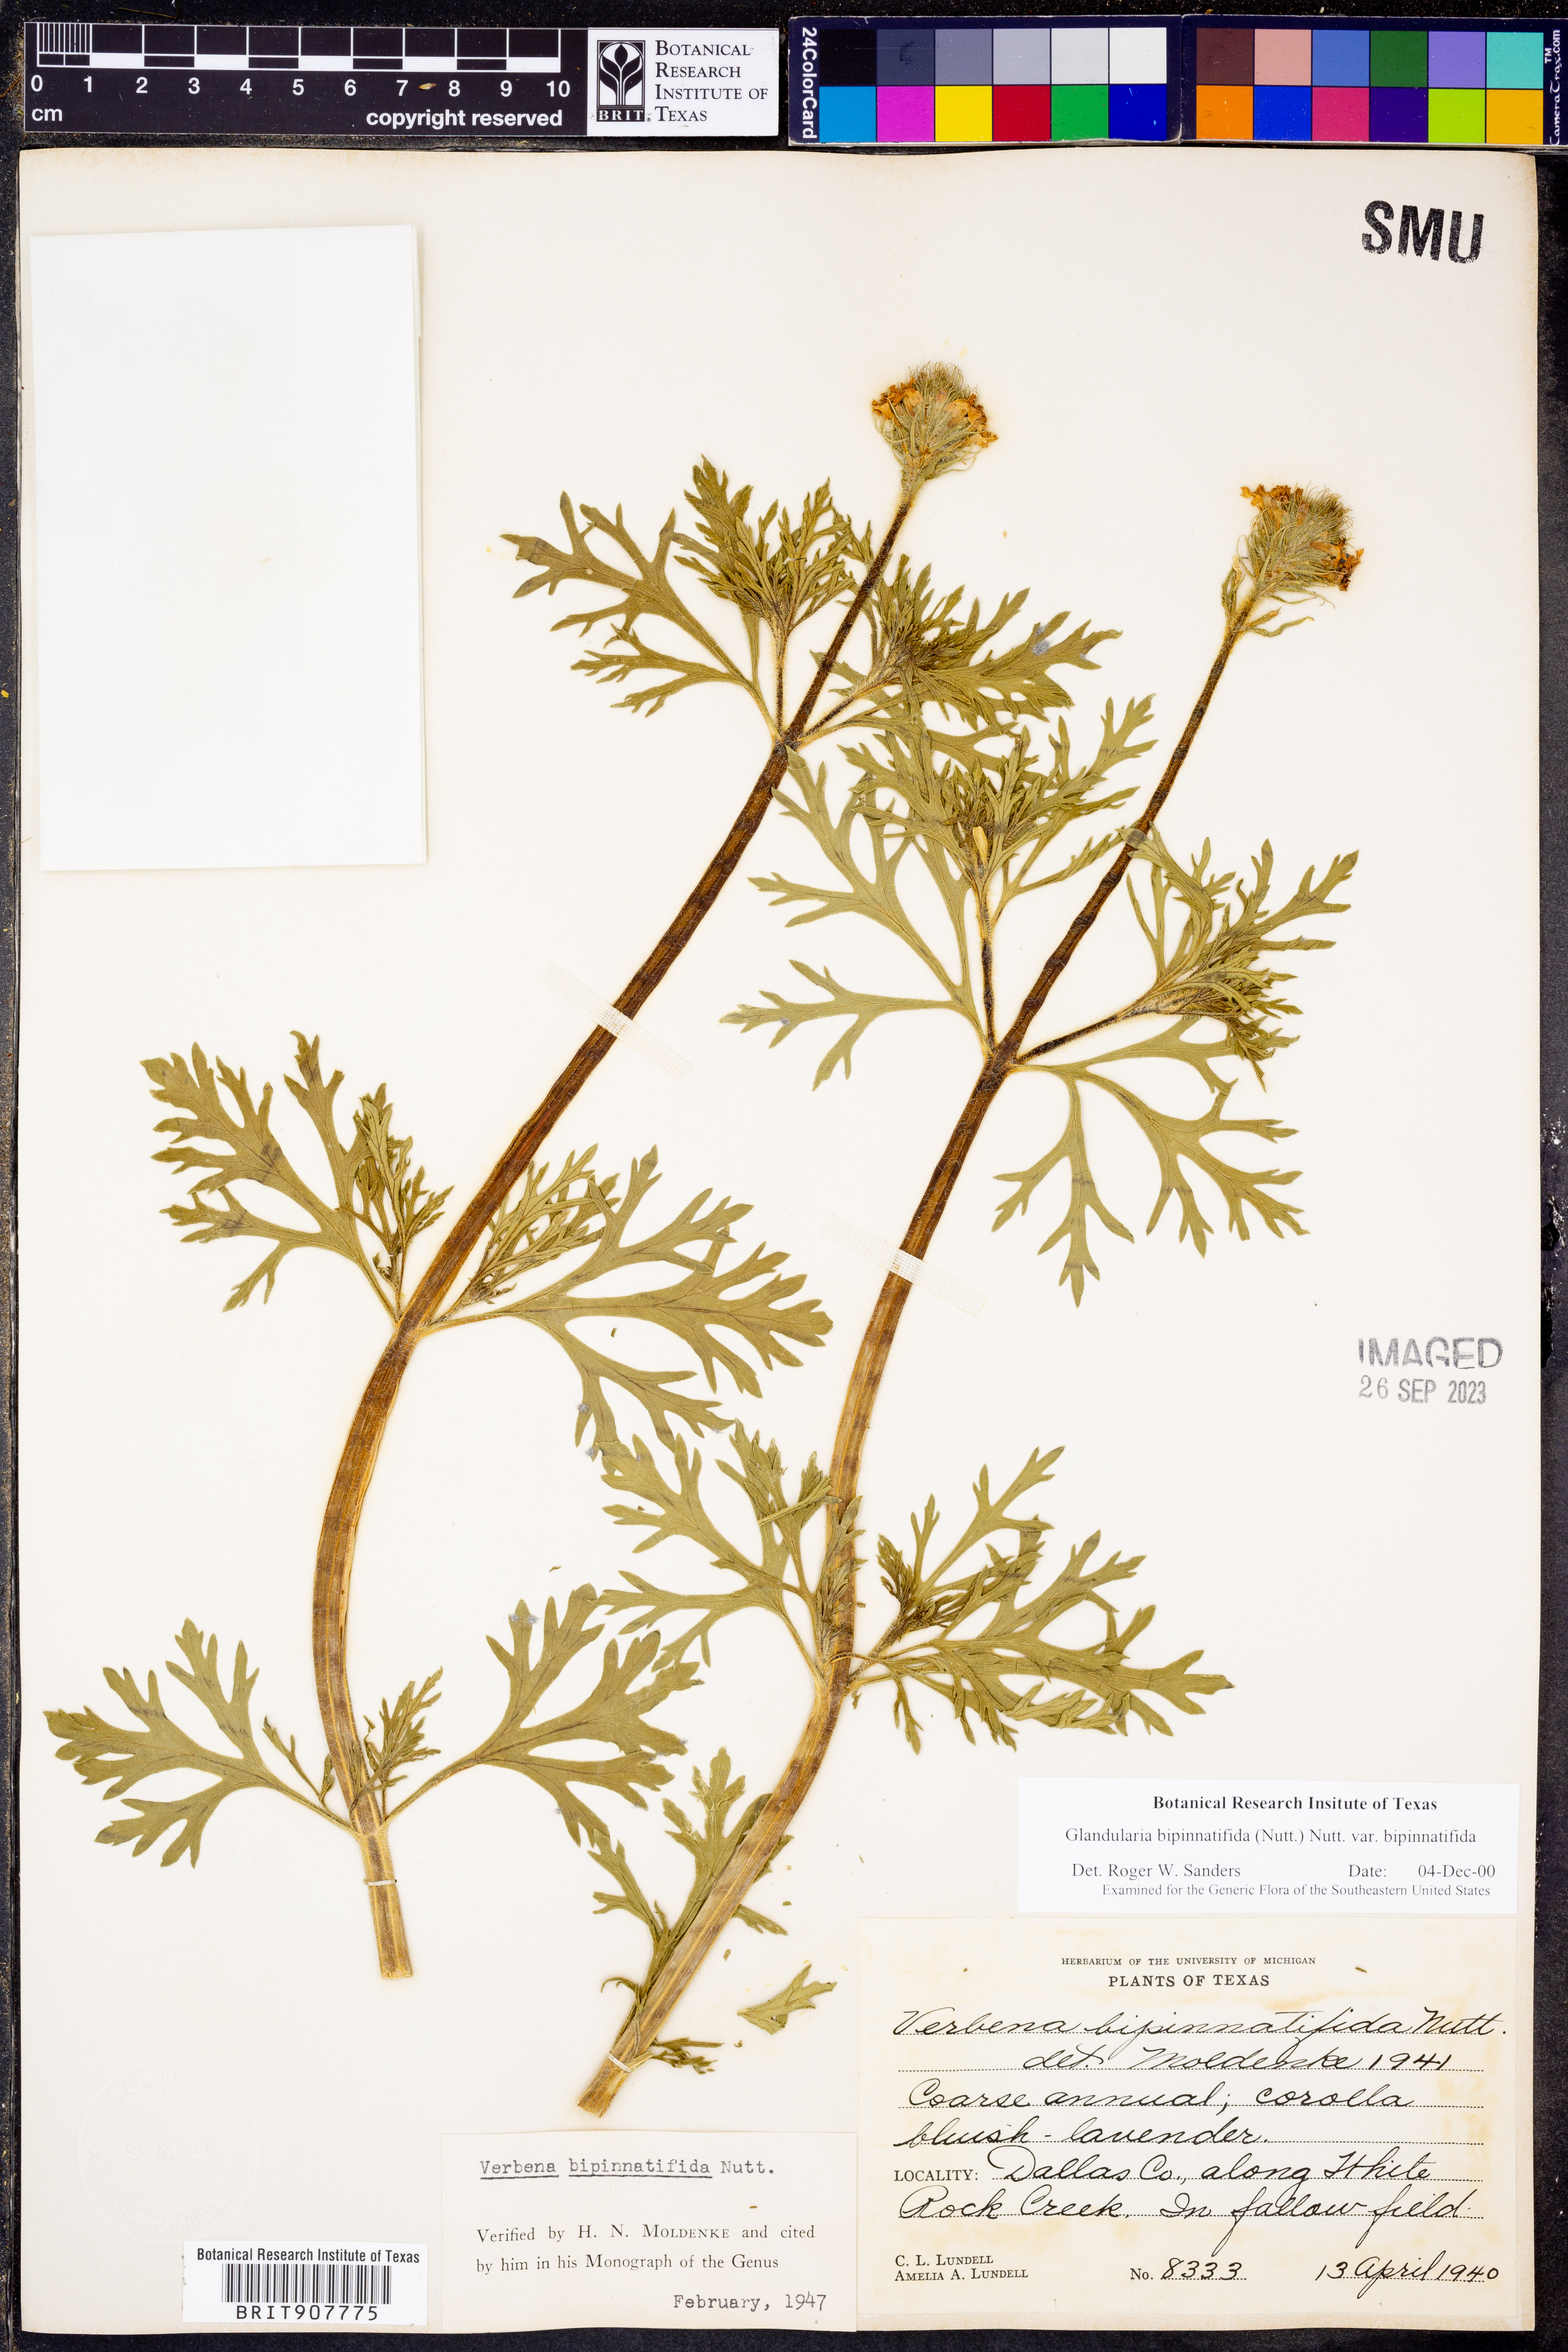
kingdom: Plantae
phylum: Tracheophyta
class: Magnoliopsida
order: Lamiales
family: Verbenaceae
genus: Verbena
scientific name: Verbena bipinnatifida
